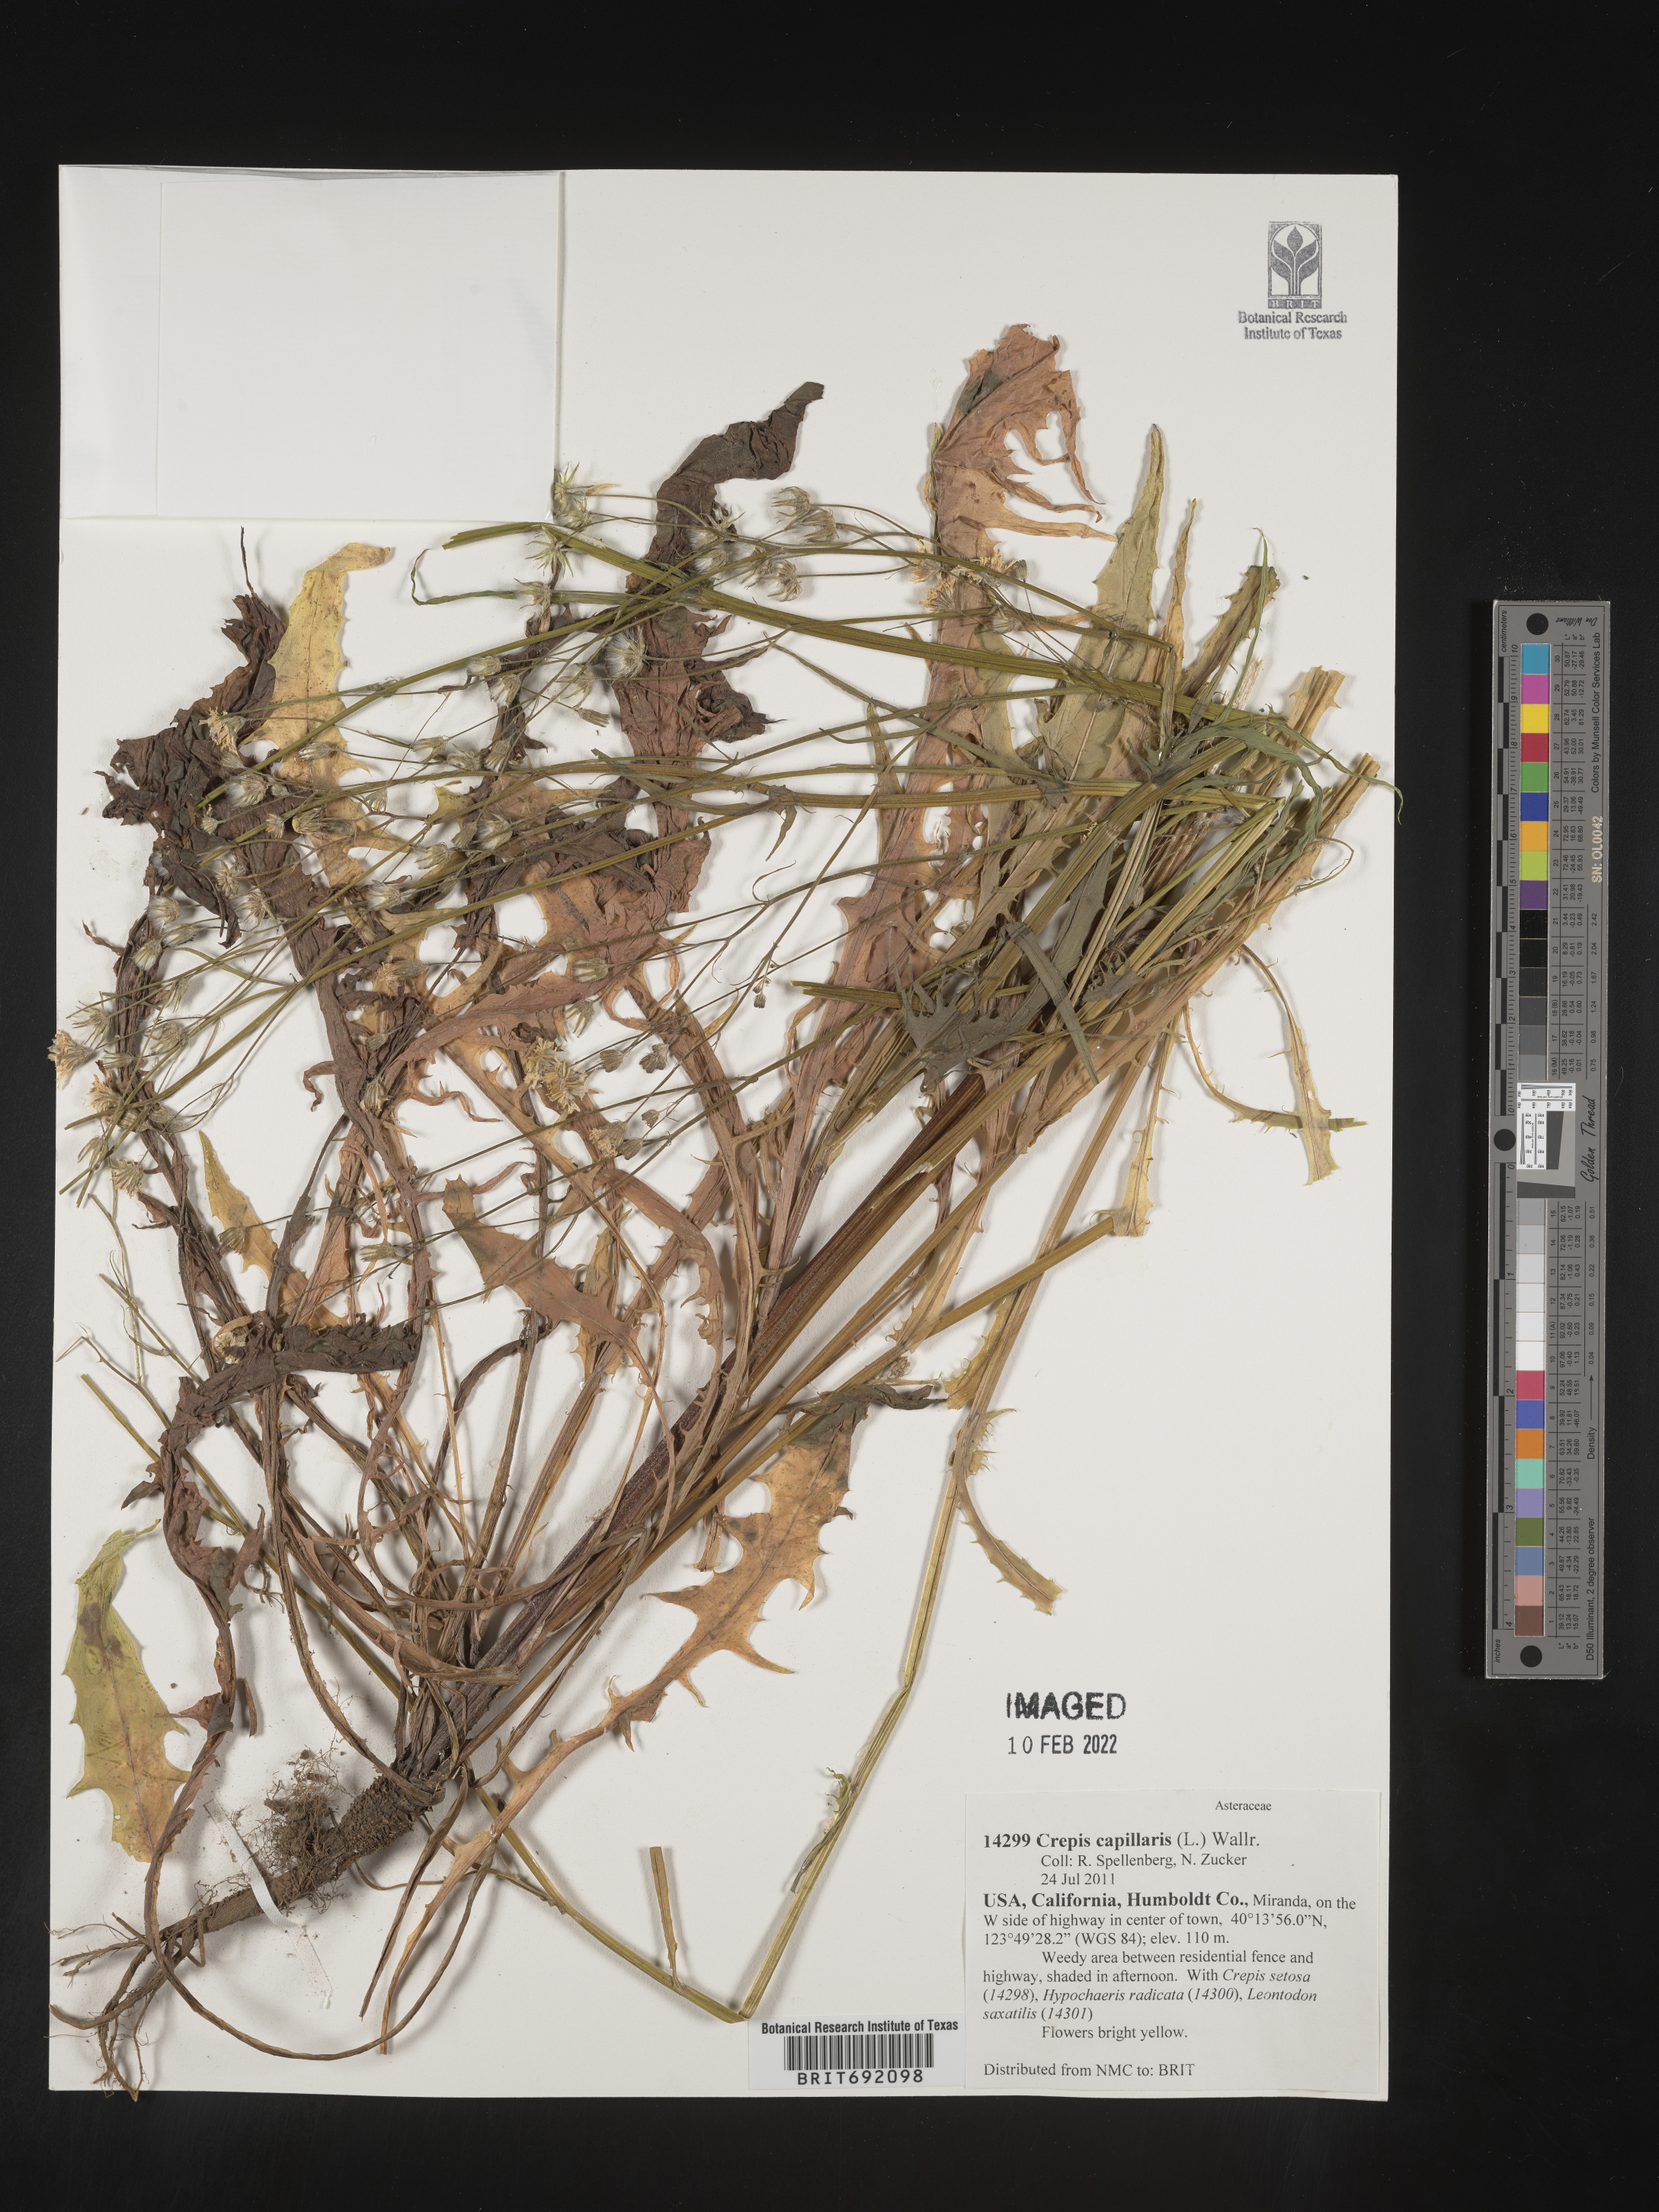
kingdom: Plantae
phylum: Tracheophyta
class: Magnoliopsida
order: Asterales
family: Asteraceae
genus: Crepis
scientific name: Crepis
